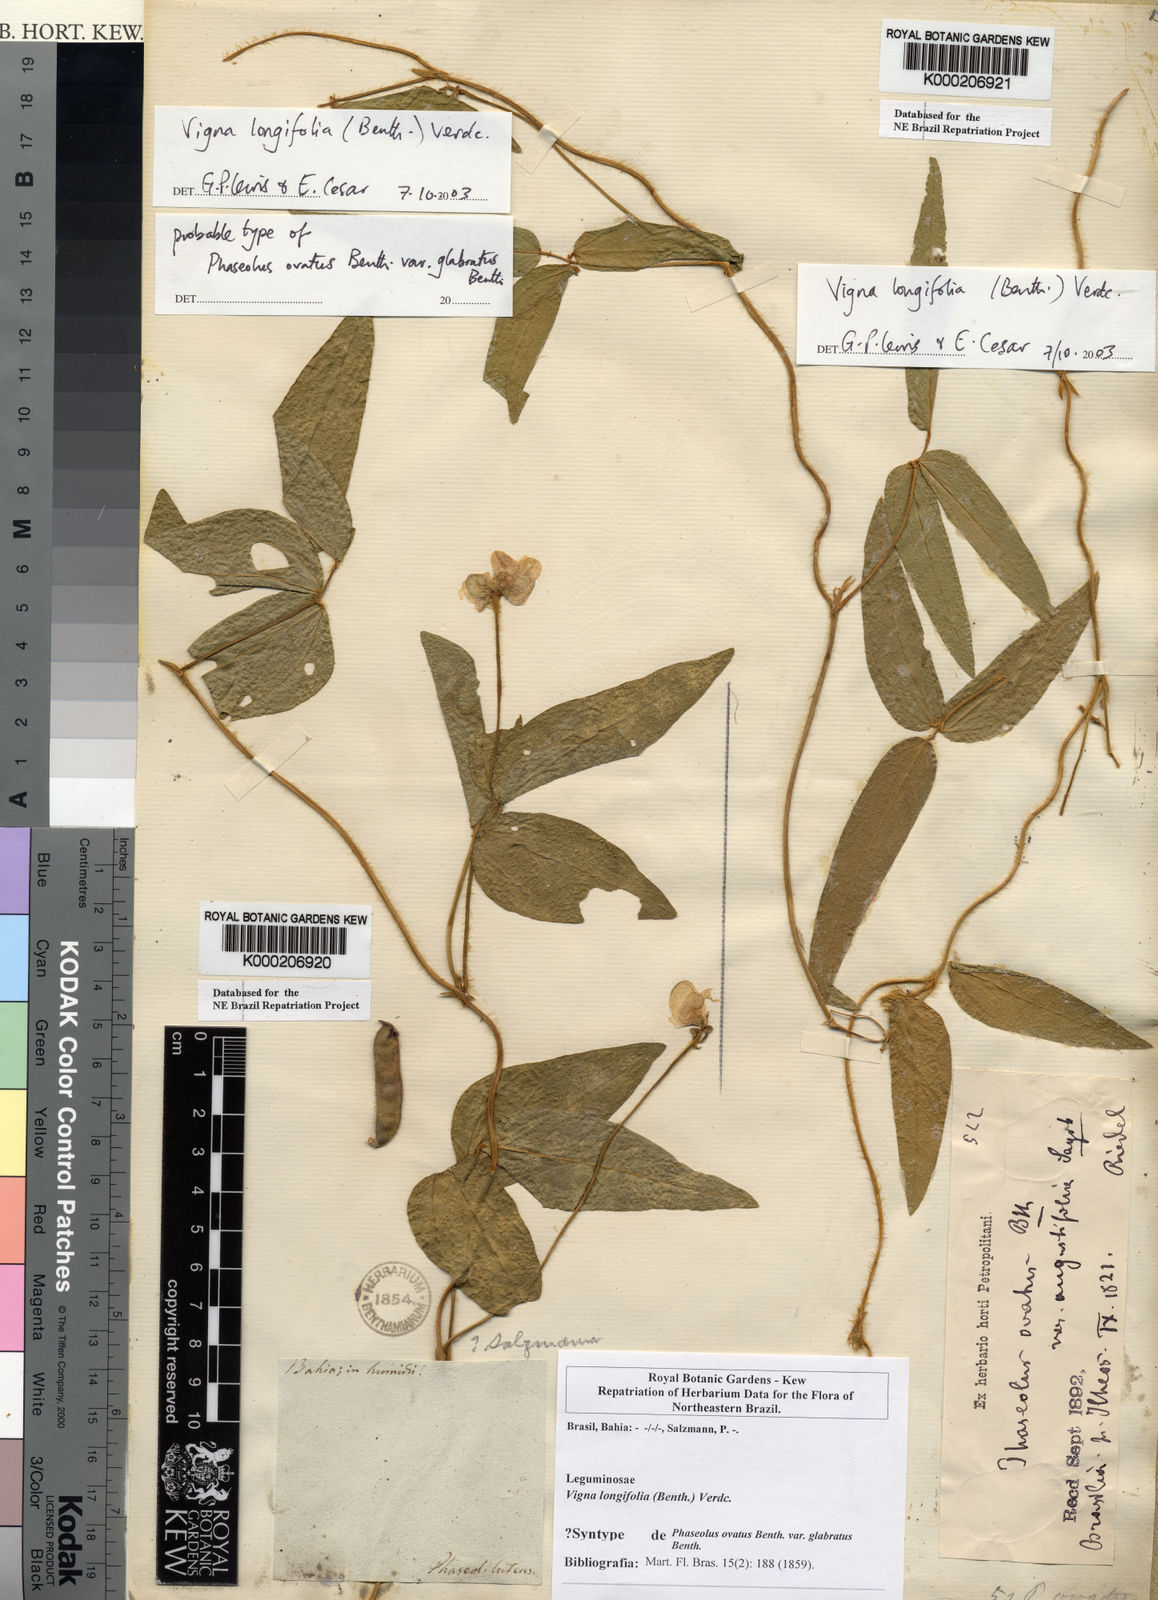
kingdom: Plantae
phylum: Tracheophyta
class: Magnoliopsida
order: Fabales
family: Fabaceae
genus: Vigna
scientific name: Vigna longifolia
